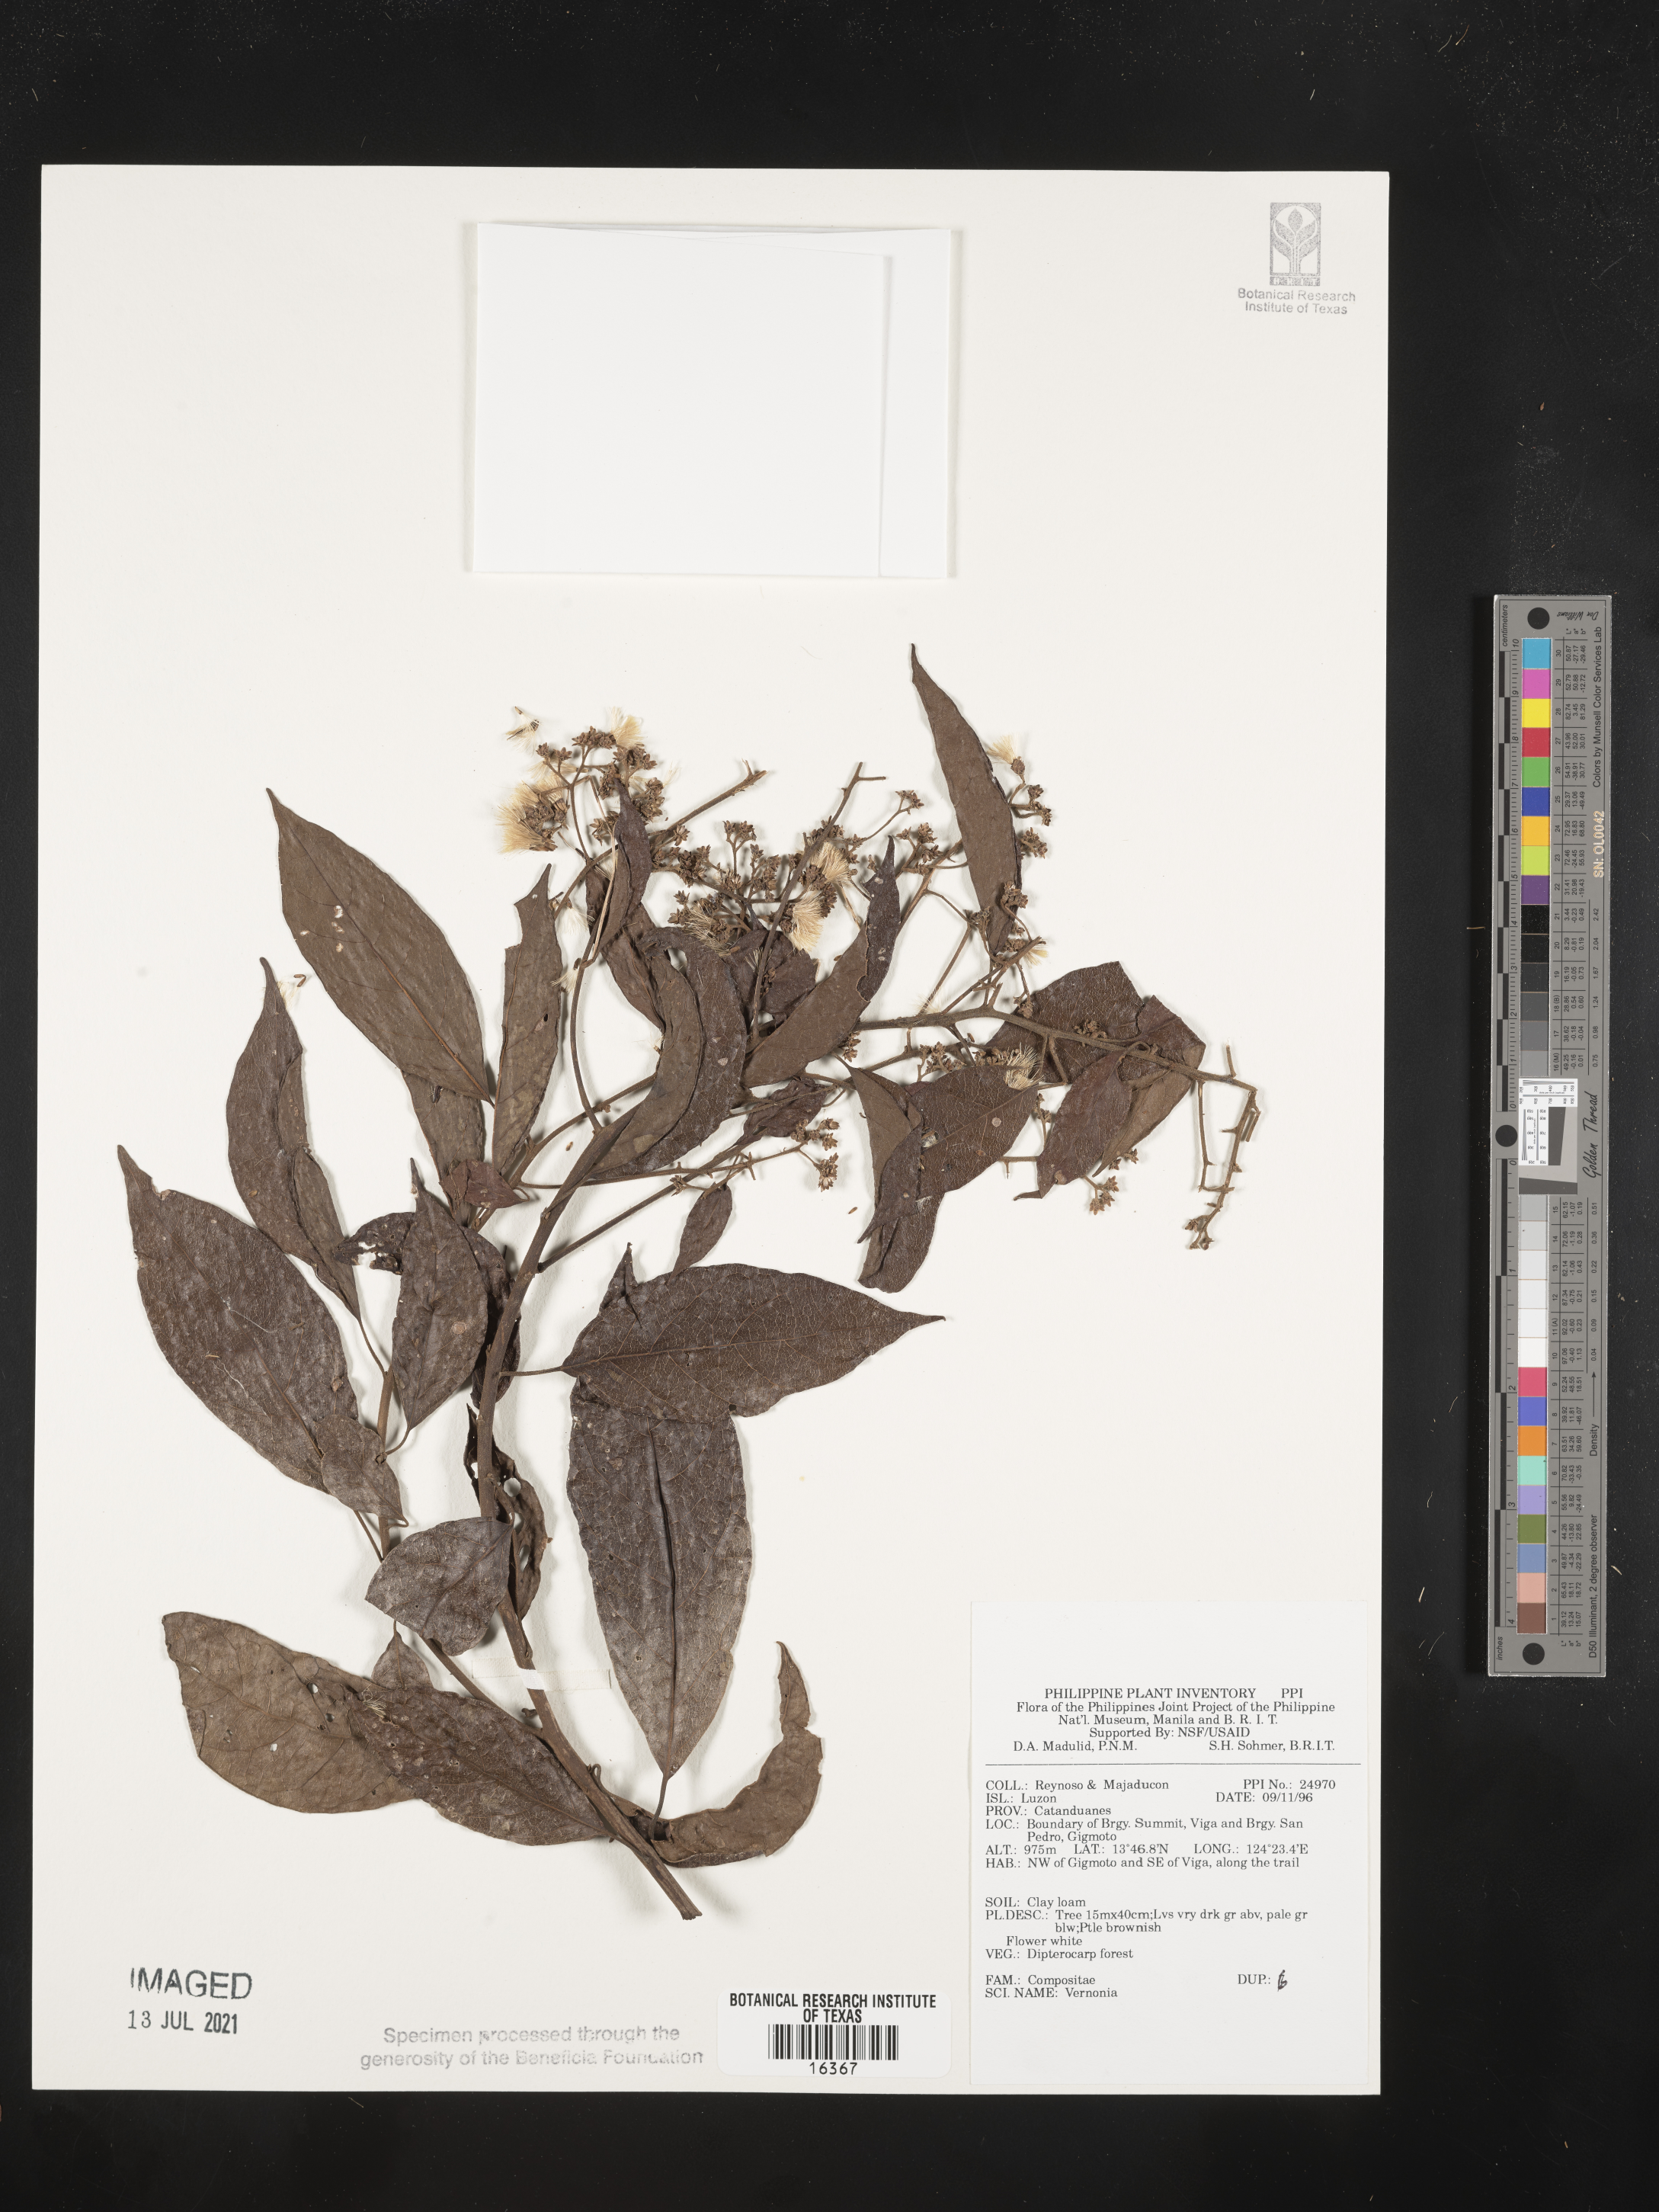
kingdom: Plantae
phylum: Tracheophyta
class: Magnoliopsida
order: Asterales
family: Asteraceae
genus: Vernonia
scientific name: Vernonia
